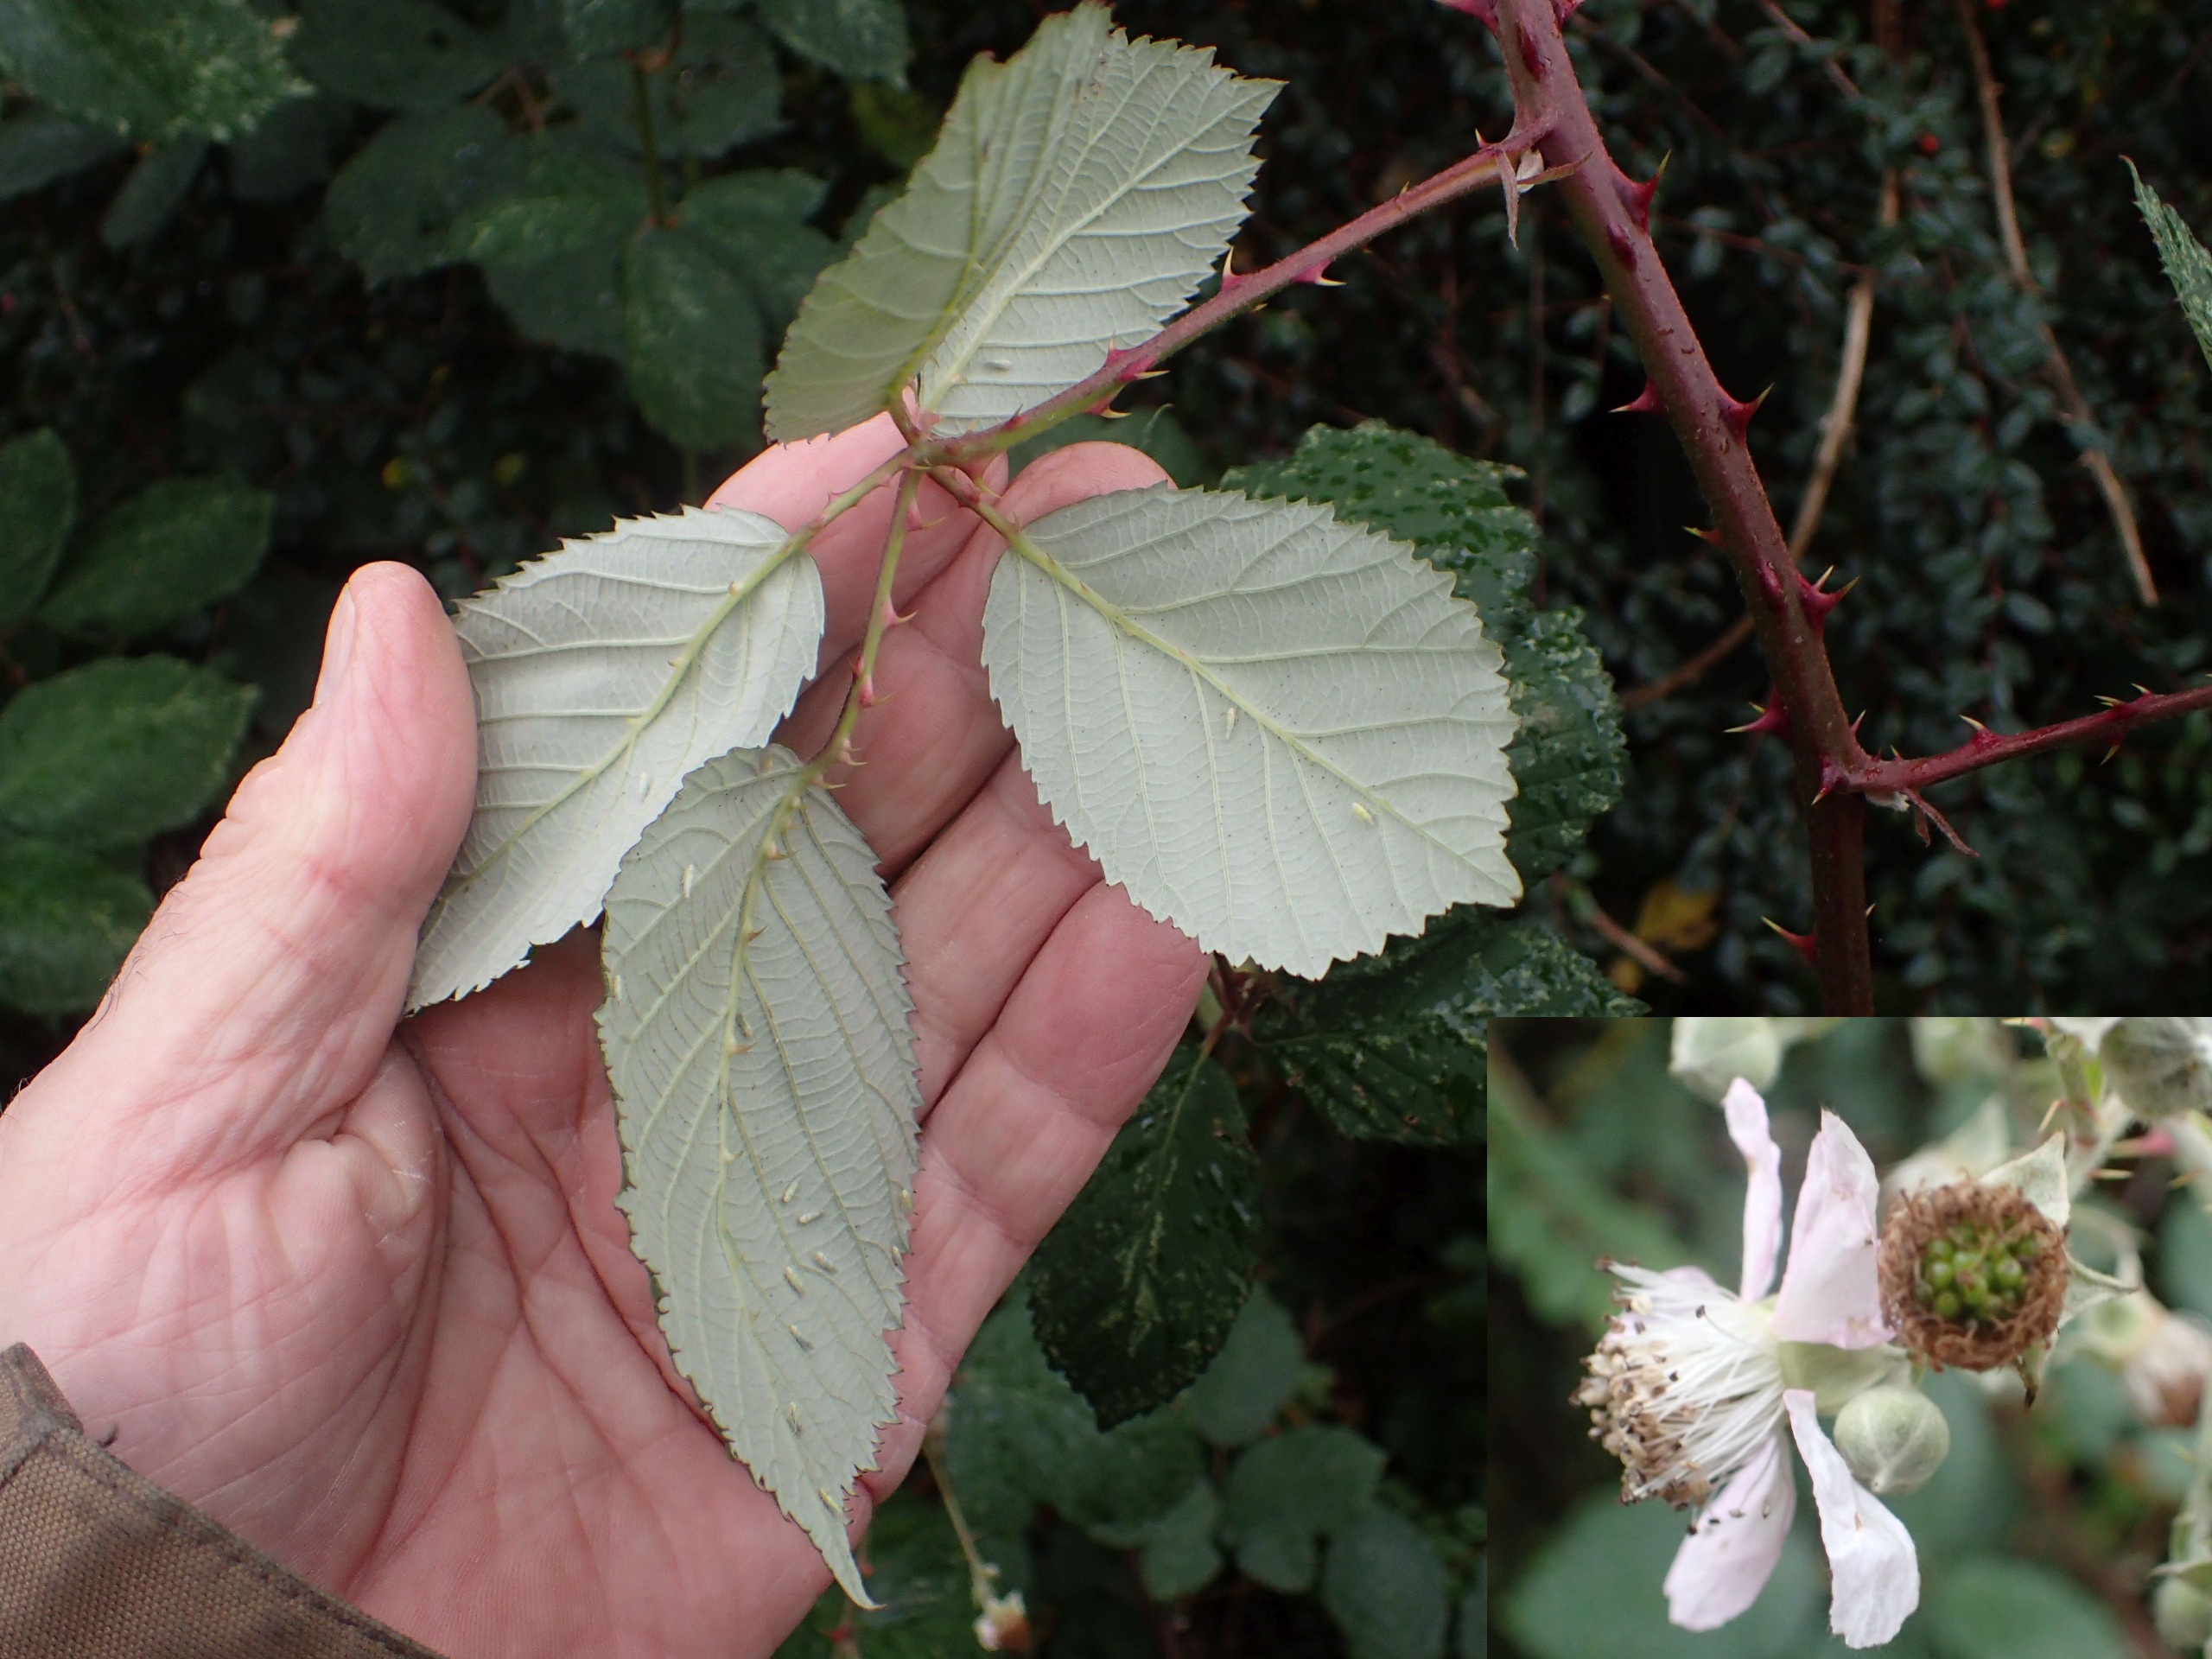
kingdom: Plantae
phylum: Tracheophyta
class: Magnoliopsida
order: Rosales
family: Rosaceae
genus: Rubus
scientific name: Rubus armeniacus
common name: Armensk brombær
